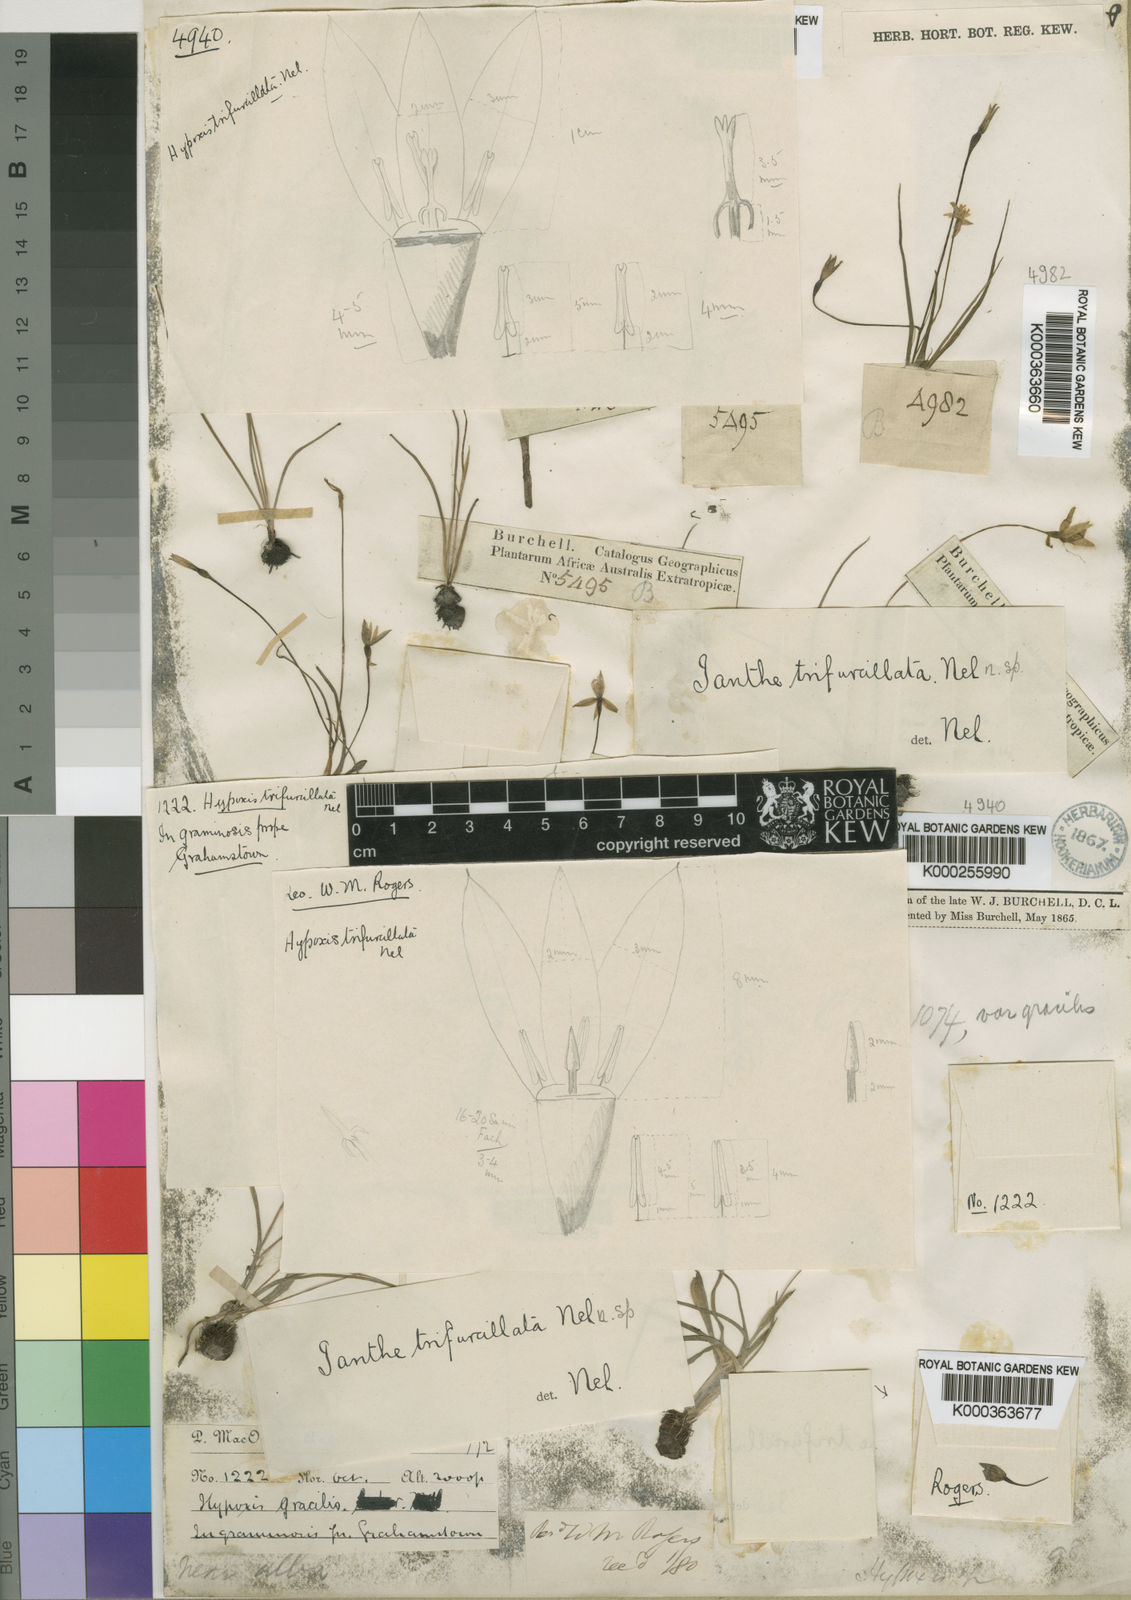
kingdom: Plantae
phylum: Tracheophyta
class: Liliopsida
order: Poales
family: Cyperaceae
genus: Carex
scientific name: Carex simensis
